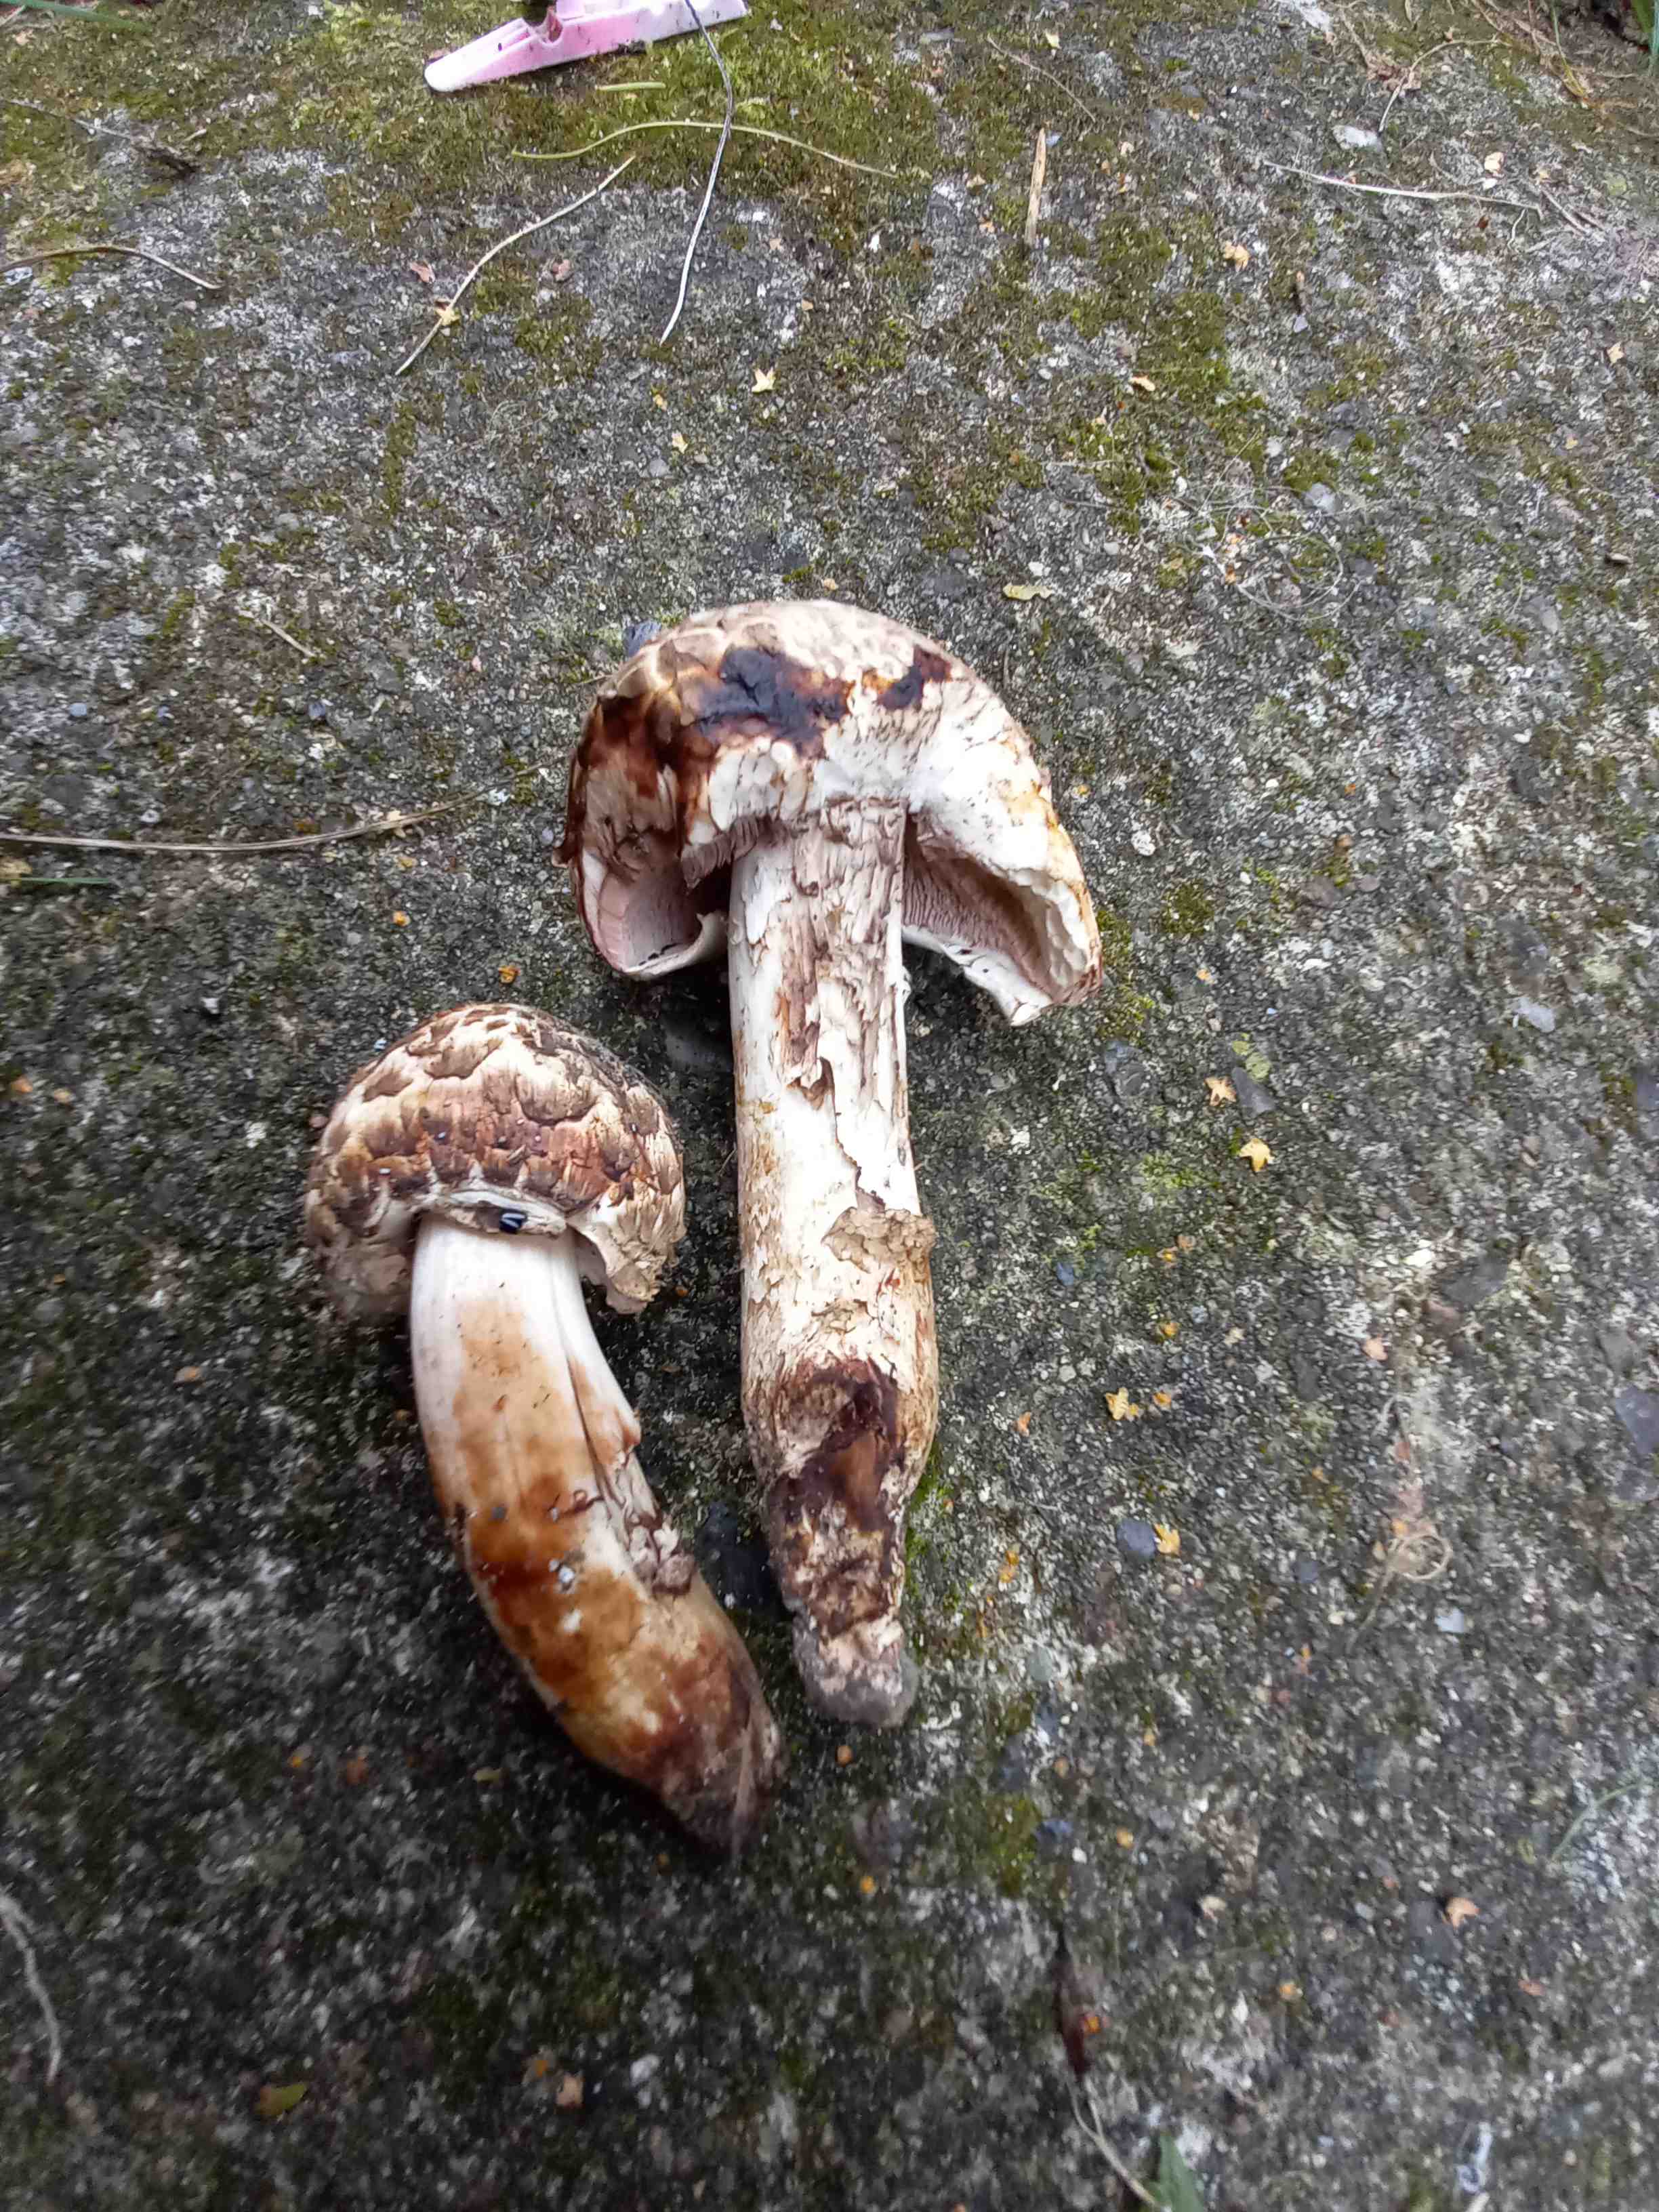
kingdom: Fungi
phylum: Basidiomycota
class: Agaricomycetes
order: Agaricales
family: Agaricaceae
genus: Agaricus
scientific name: Agaricus bohusii
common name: krumskællet champignon
